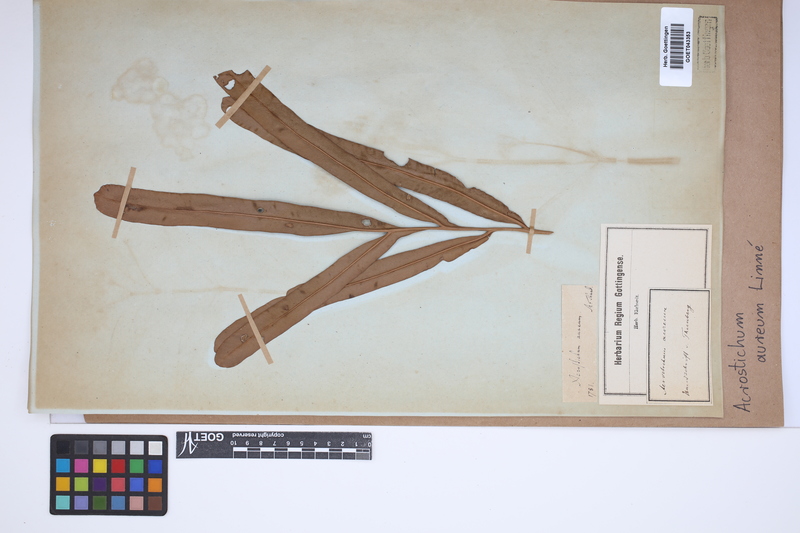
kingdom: Plantae
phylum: Tracheophyta
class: Polypodiopsida
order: Polypodiales
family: Pteridaceae
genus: Acrostichum
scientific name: Acrostichum aureum
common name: Leather fern
